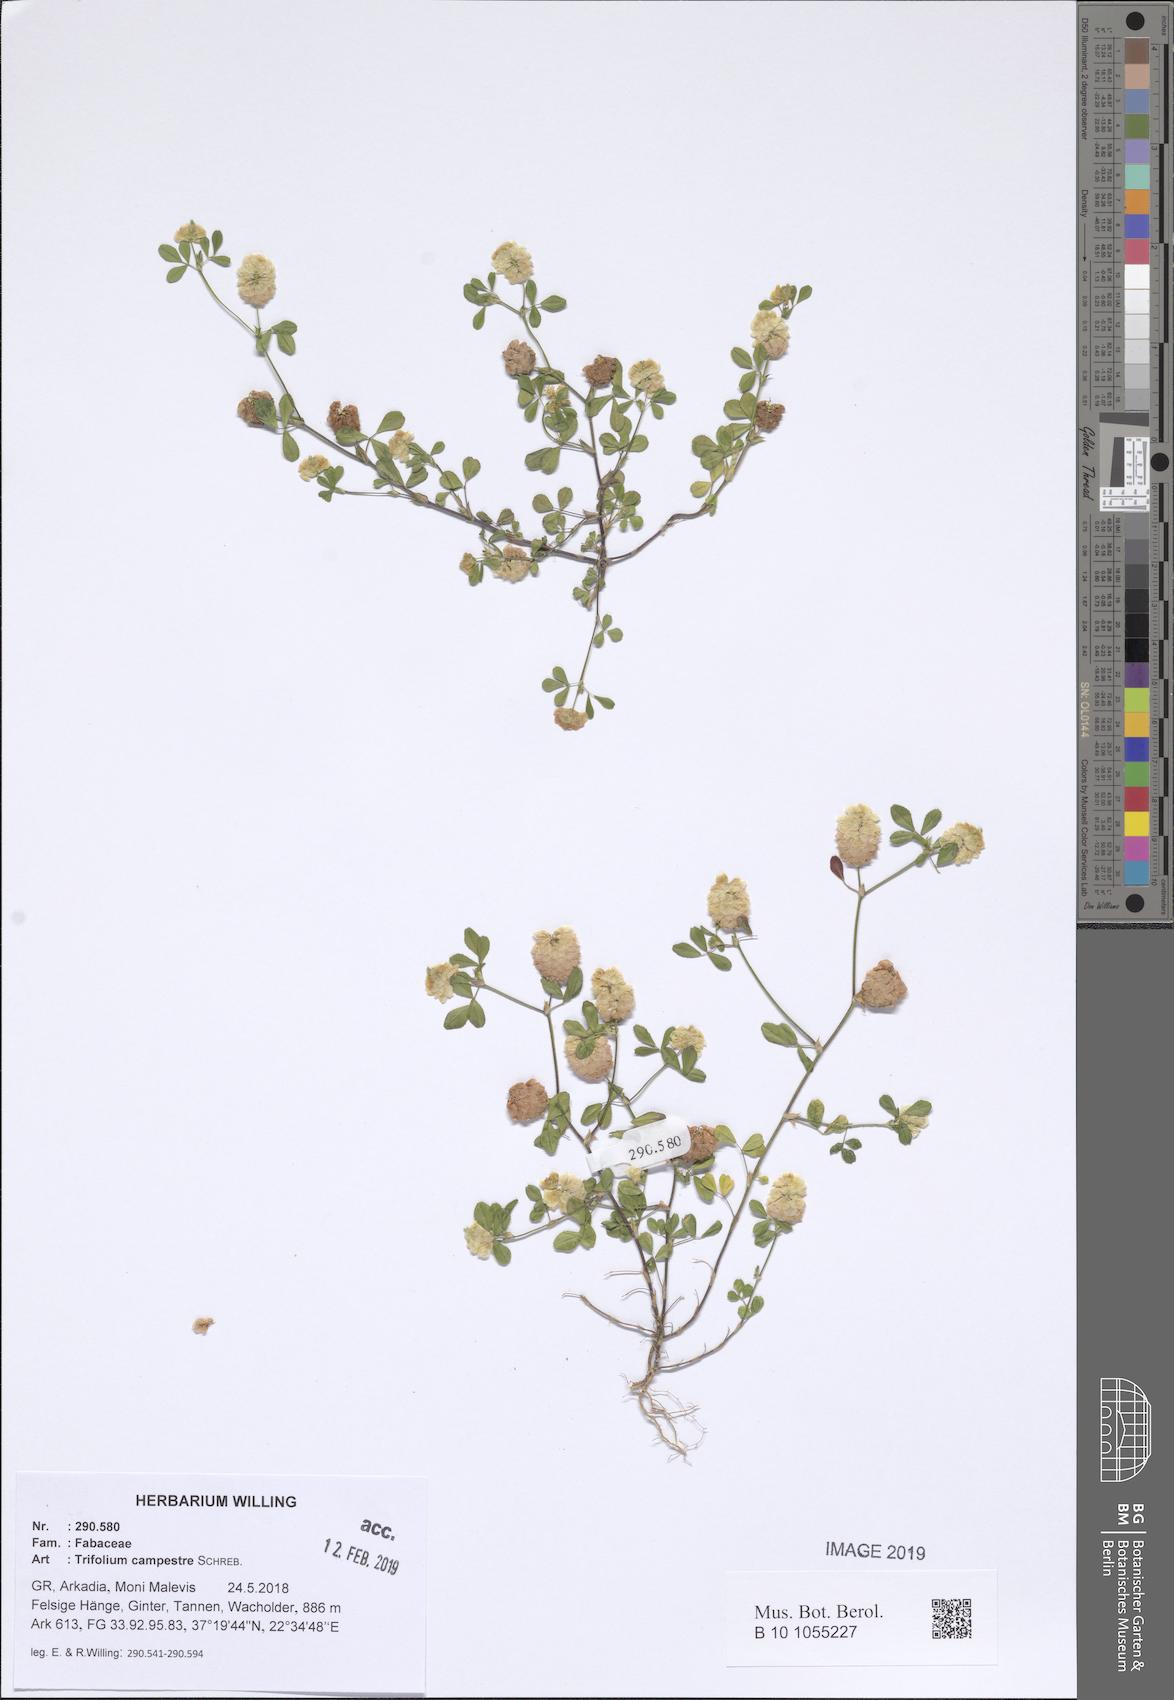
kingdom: Plantae
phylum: Tracheophyta
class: Magnoliopsida
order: Fabales
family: Fabaceae
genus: Trifolium
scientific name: Trifolium campestre
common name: Field clover
